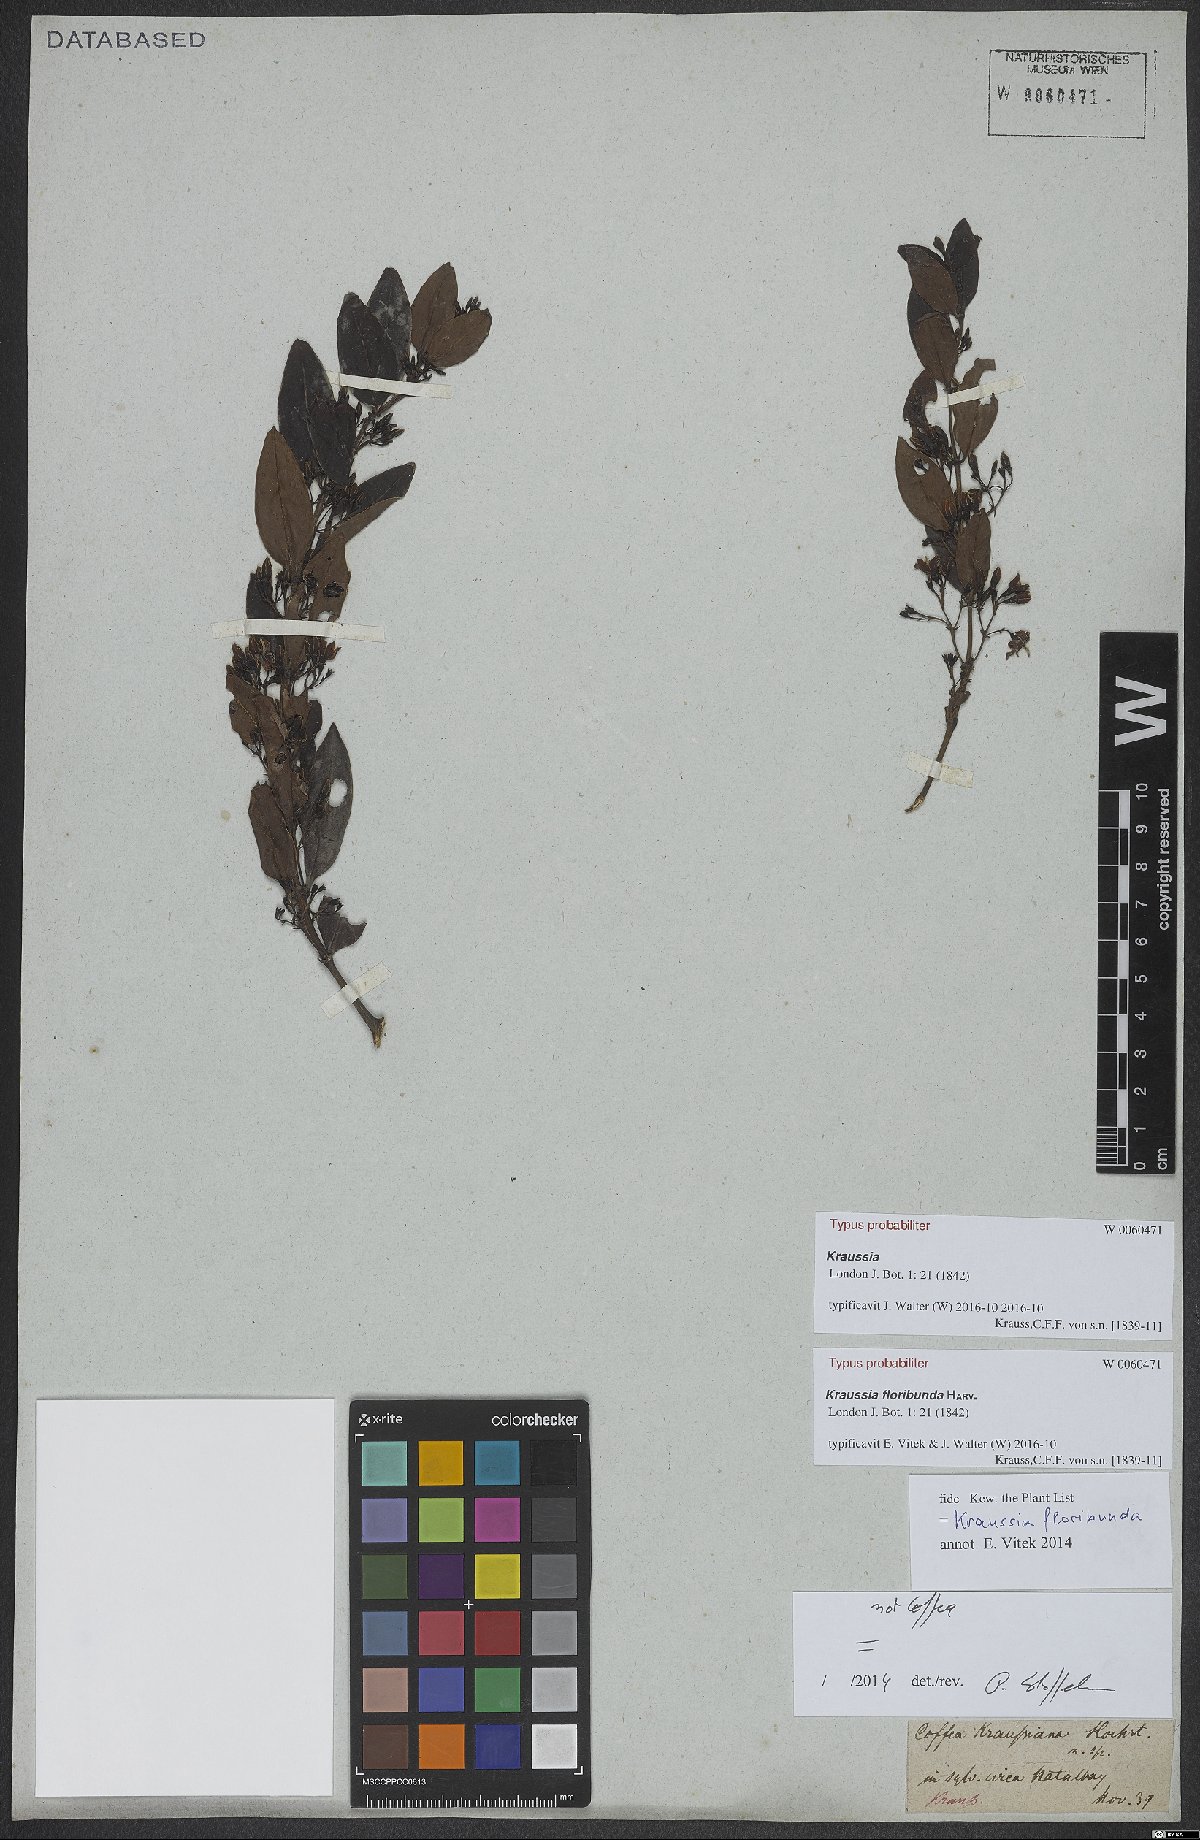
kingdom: Plantae
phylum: Tracheophyta
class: Magnoliopsida
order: Gentianales
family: Rubiaceae
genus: Kraussia
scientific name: Kraussia floribunda
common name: Rhino-coffee
